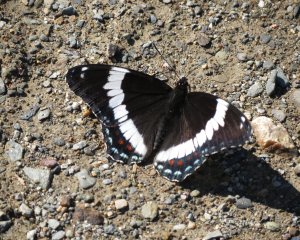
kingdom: Animalia
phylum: Arthropoda
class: Insecta
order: Lepidoptera
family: Nymphalidae
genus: Limenitis
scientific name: Limenitis arthemis
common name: Red-spotted Admiral
